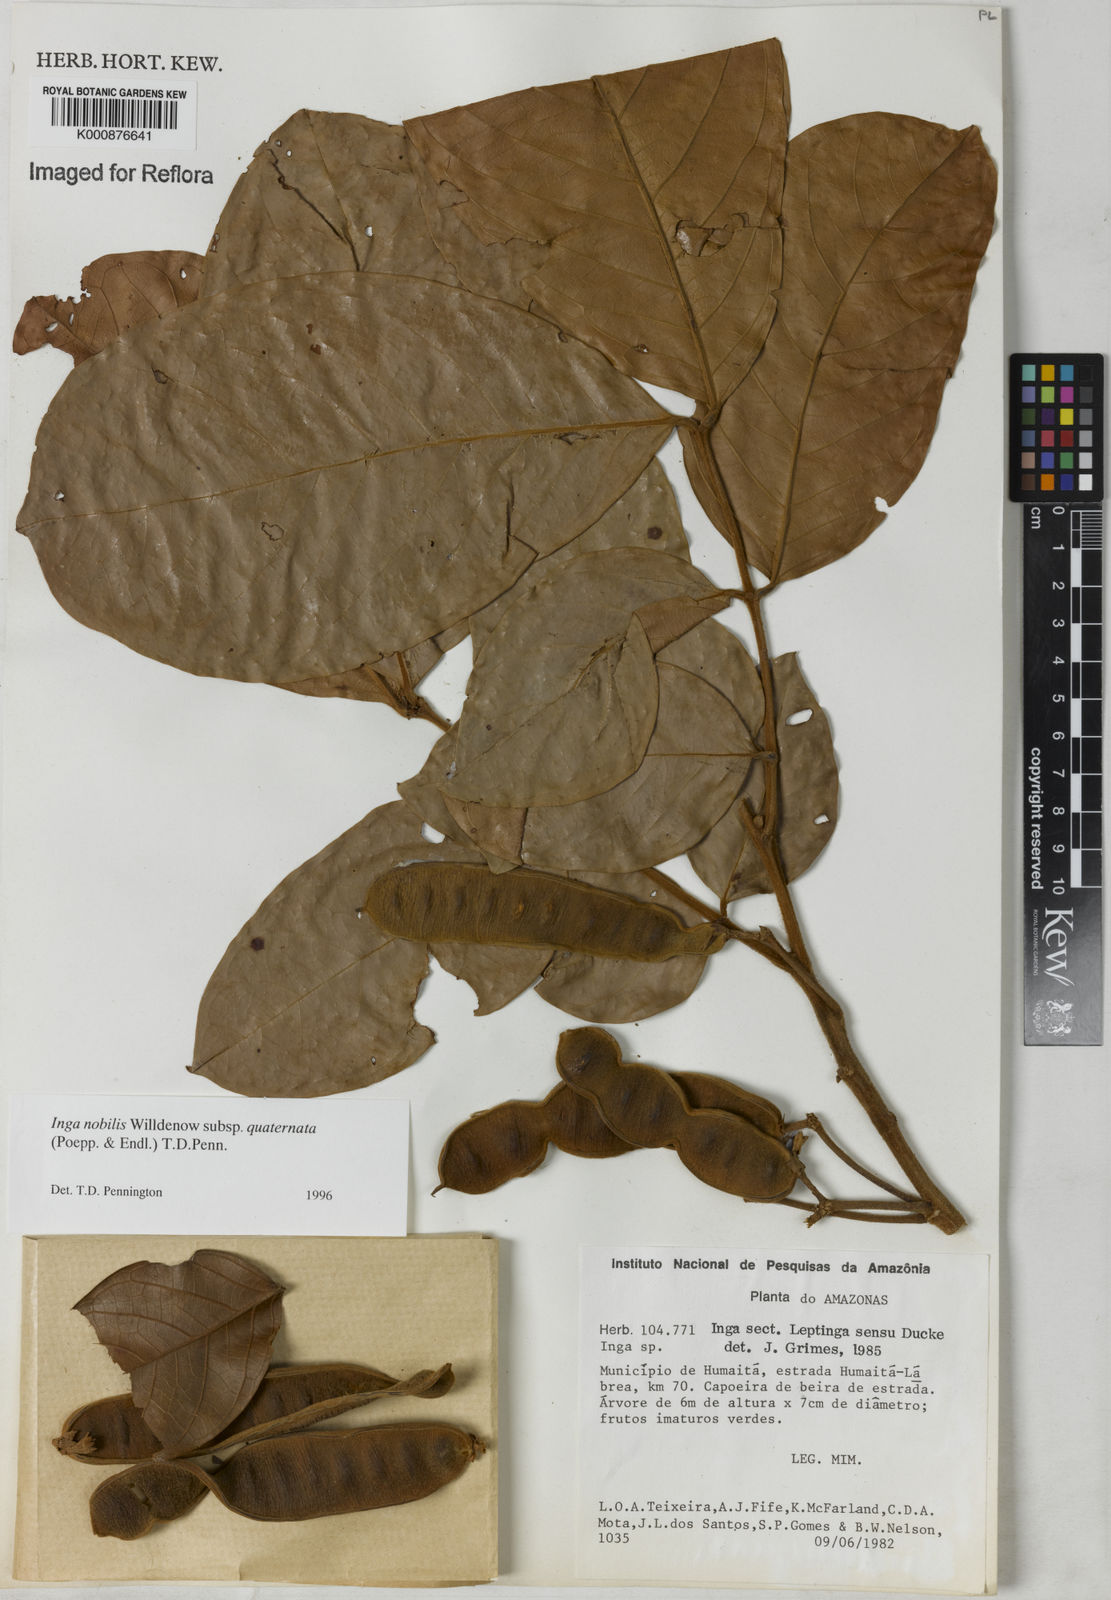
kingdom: Plantae
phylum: Tracheophyta
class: Magnoliopsida
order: Fabales
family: Fabaceae
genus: Inga
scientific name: Inga nobilis
